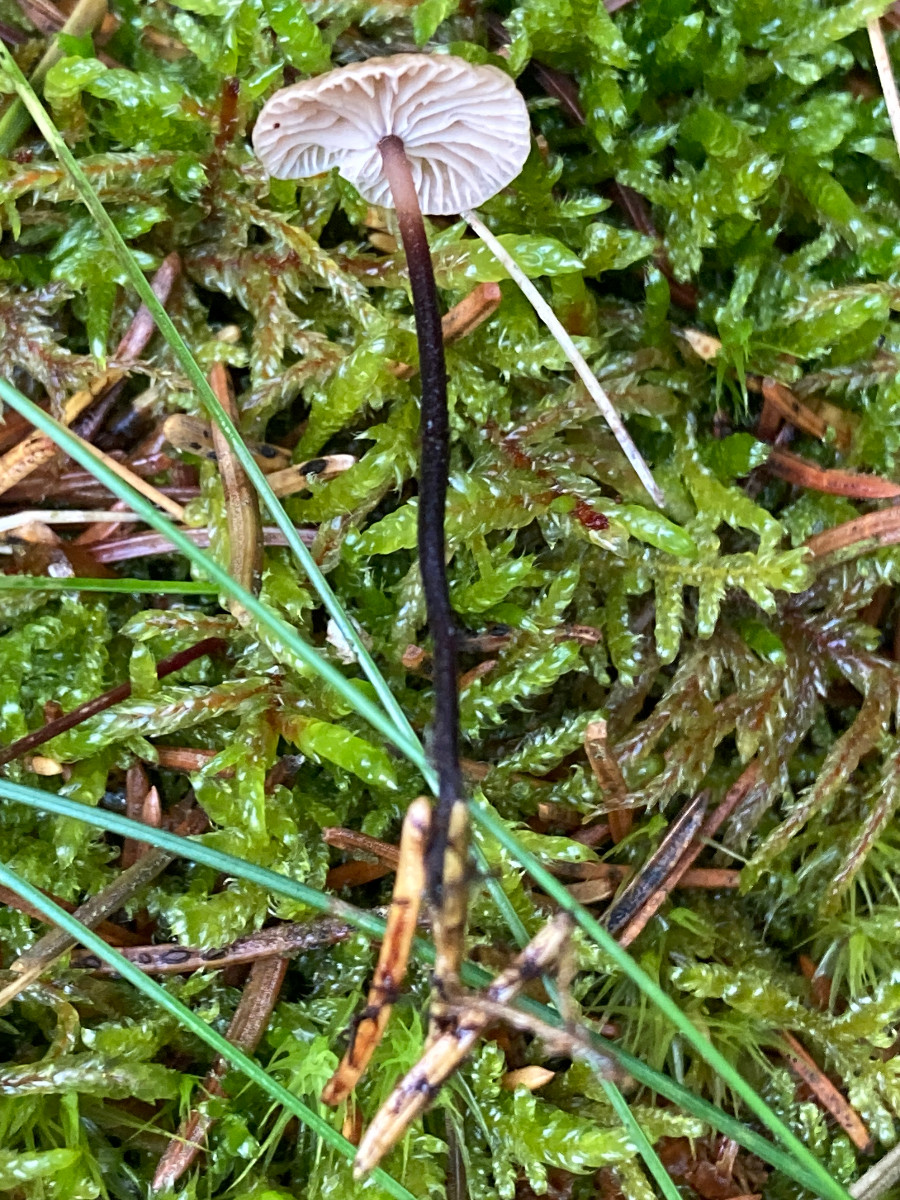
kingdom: Fungi
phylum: Basidiomycota
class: Agaricomycetes
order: Agaricales
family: Omphalotaceae
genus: Paragymnopus
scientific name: Paragymnopus perforans
